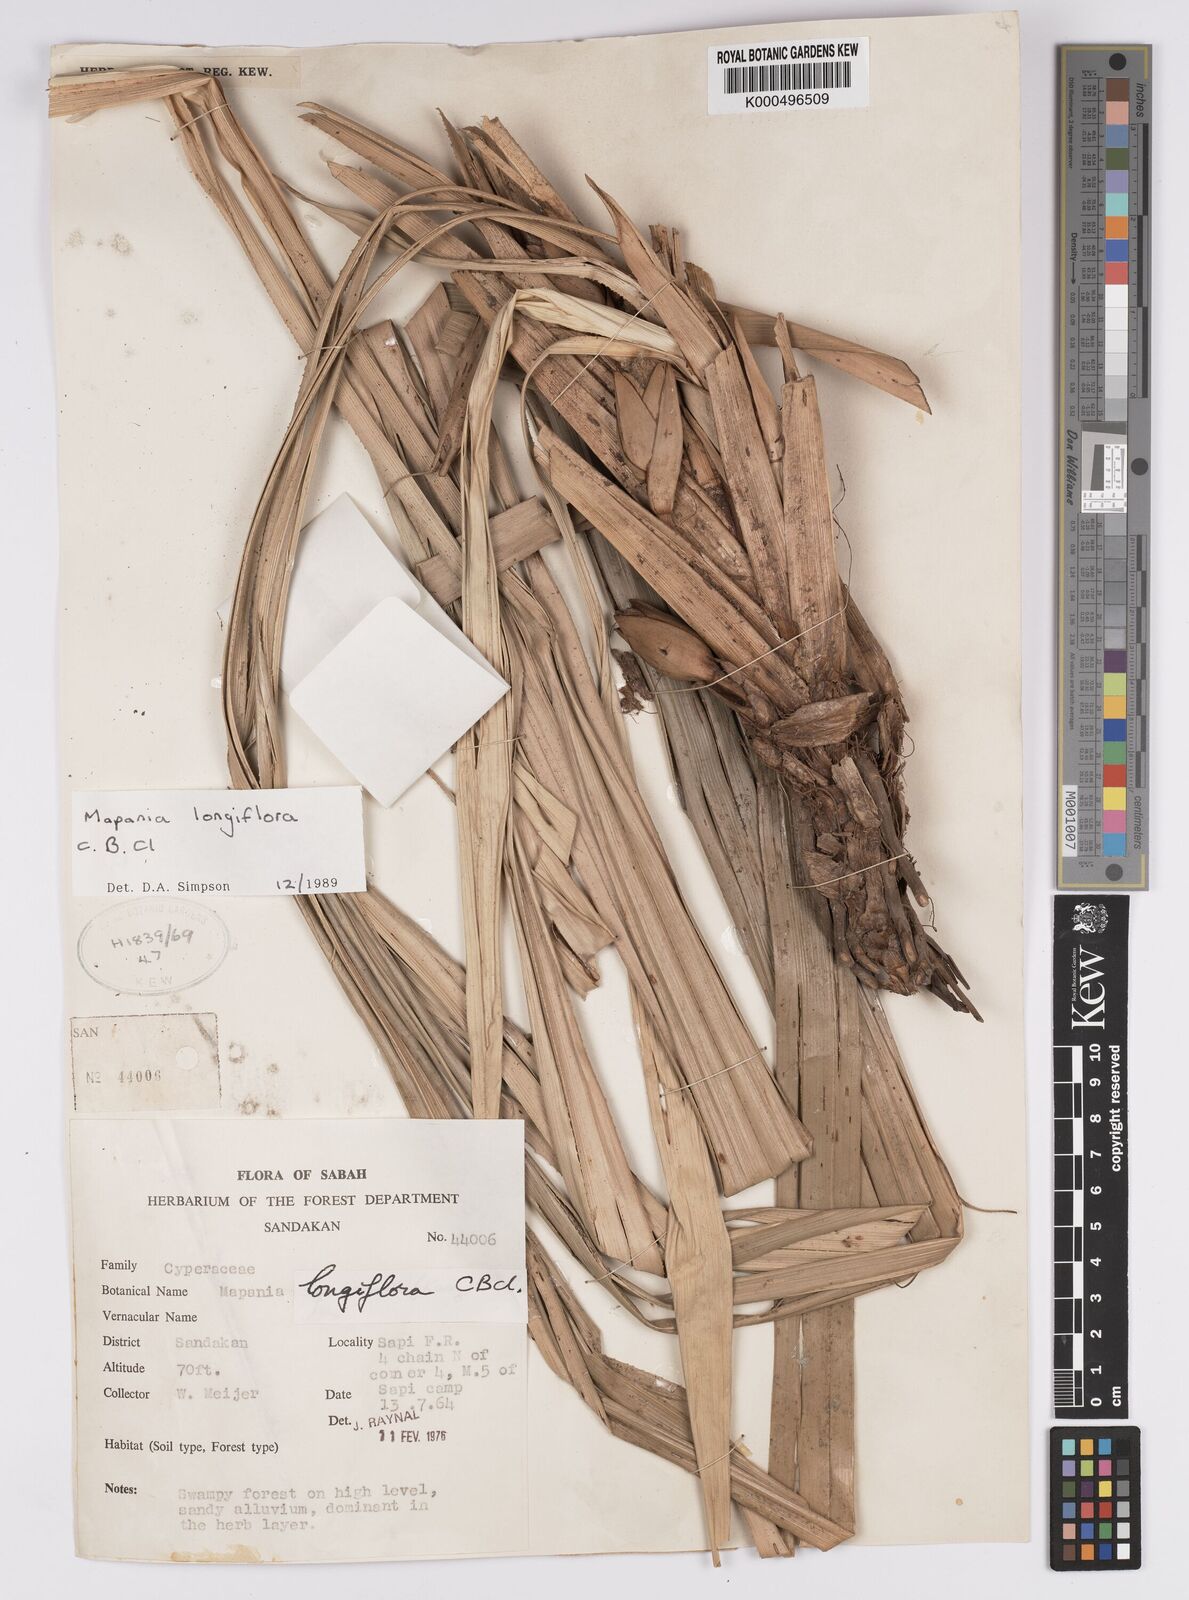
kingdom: Plantae
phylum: Tracheophyta
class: Liliopsida
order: Poales
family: Cyperaceae
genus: Mapania
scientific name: Mapania longiflora
